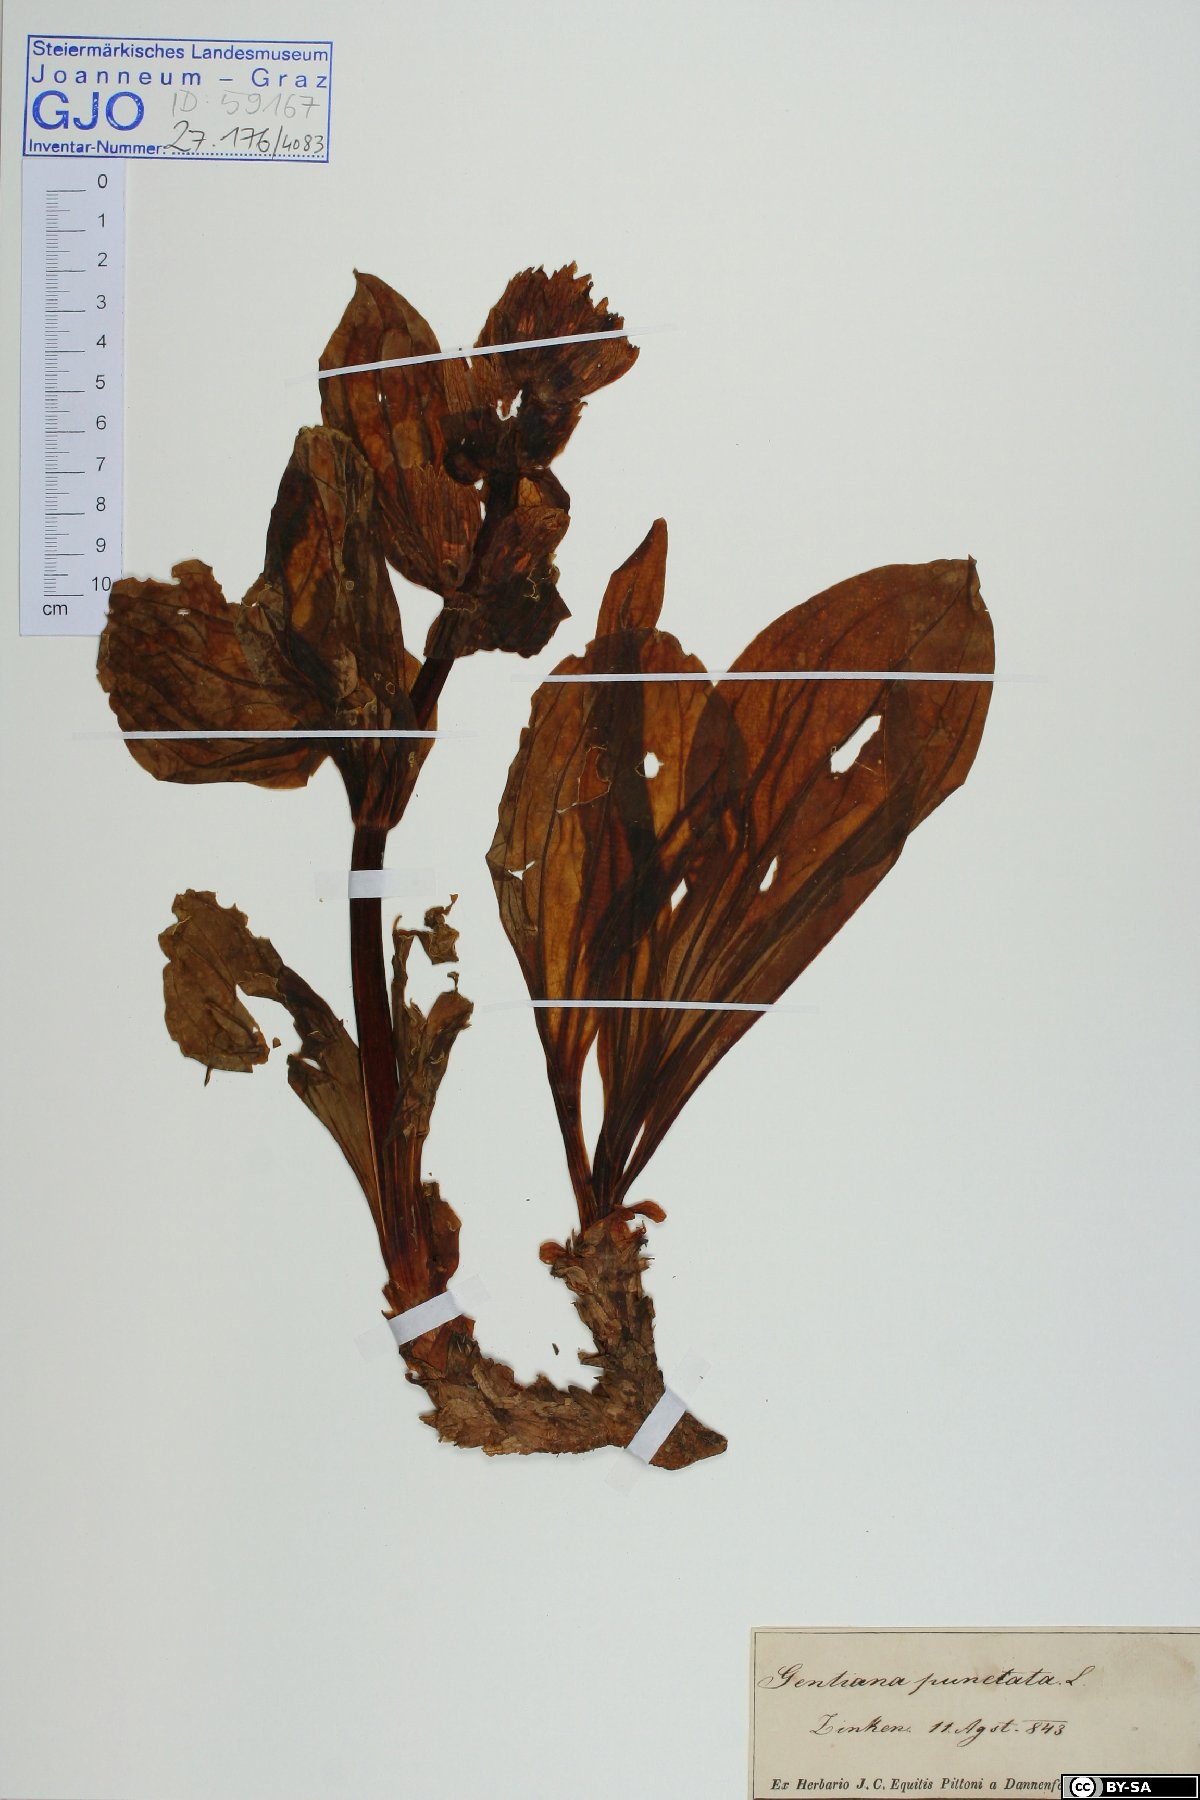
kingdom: Plantae
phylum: Tracheophyta
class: Magnoliopsida
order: Gentianales
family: Gentianaceae
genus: Gentiana
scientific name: Gentiana punctata
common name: Spotted gentian
